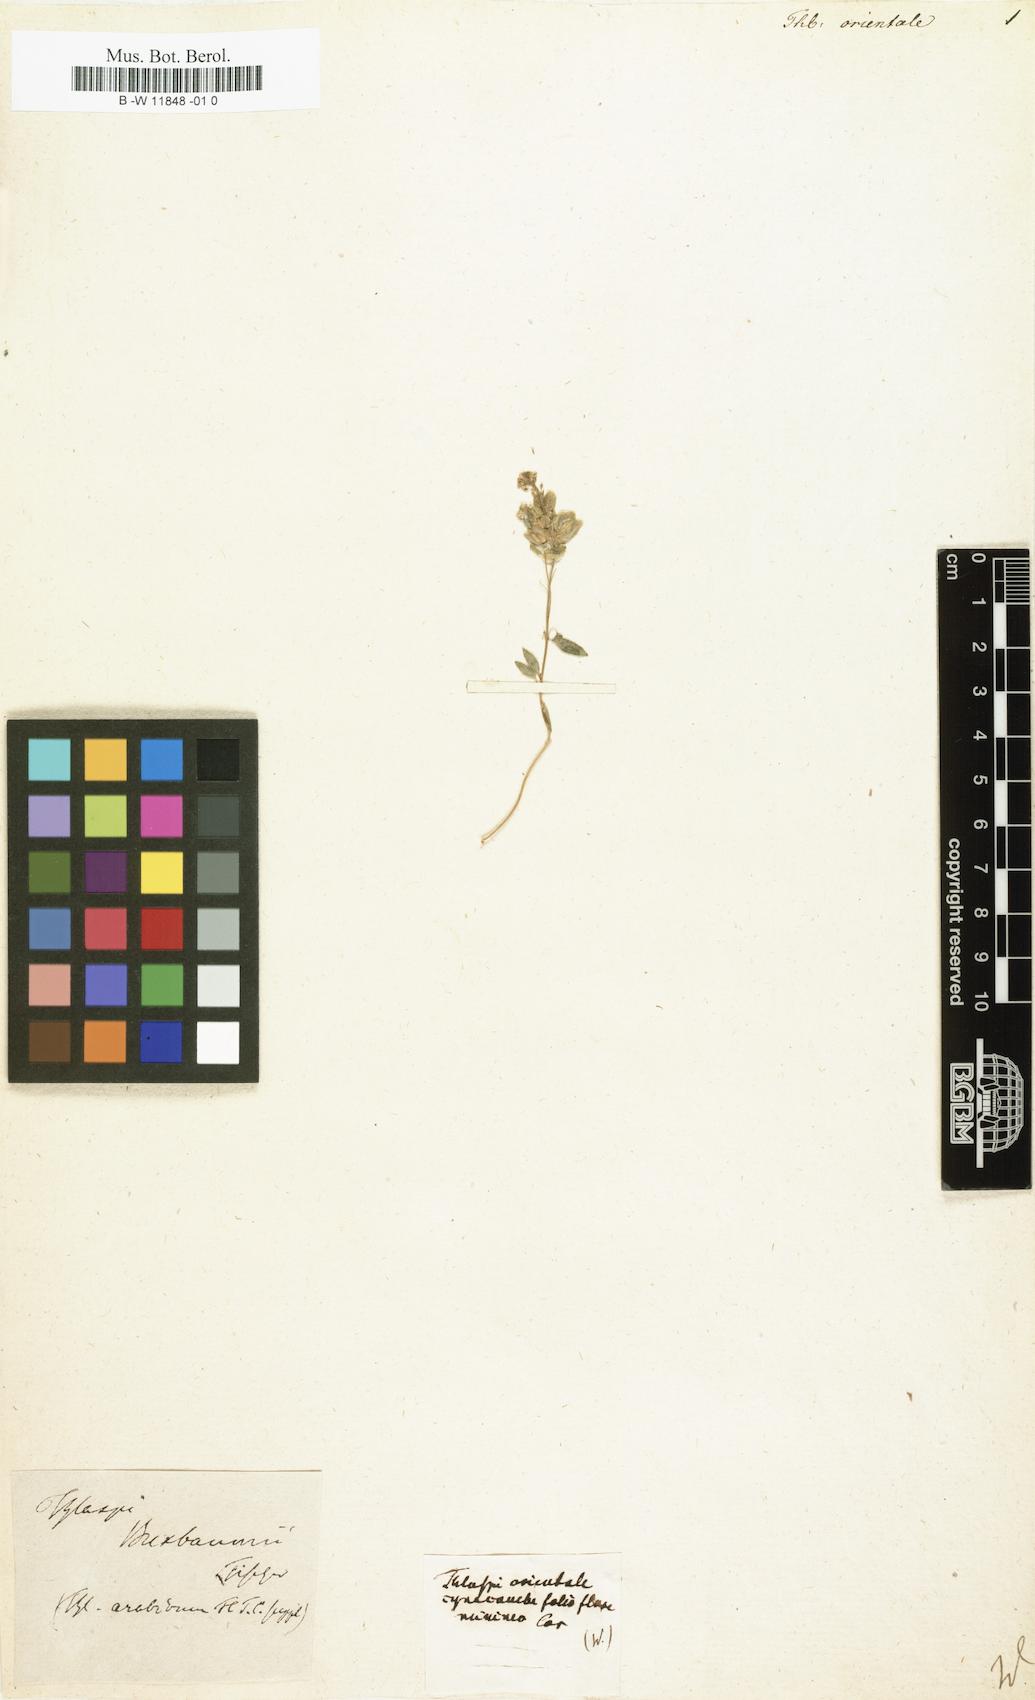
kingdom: Plantae
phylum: Tracheophyta
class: Magnoliopsida
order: Brassicales
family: Brassicaceae
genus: Aethionema
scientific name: Aethionema arabicum
